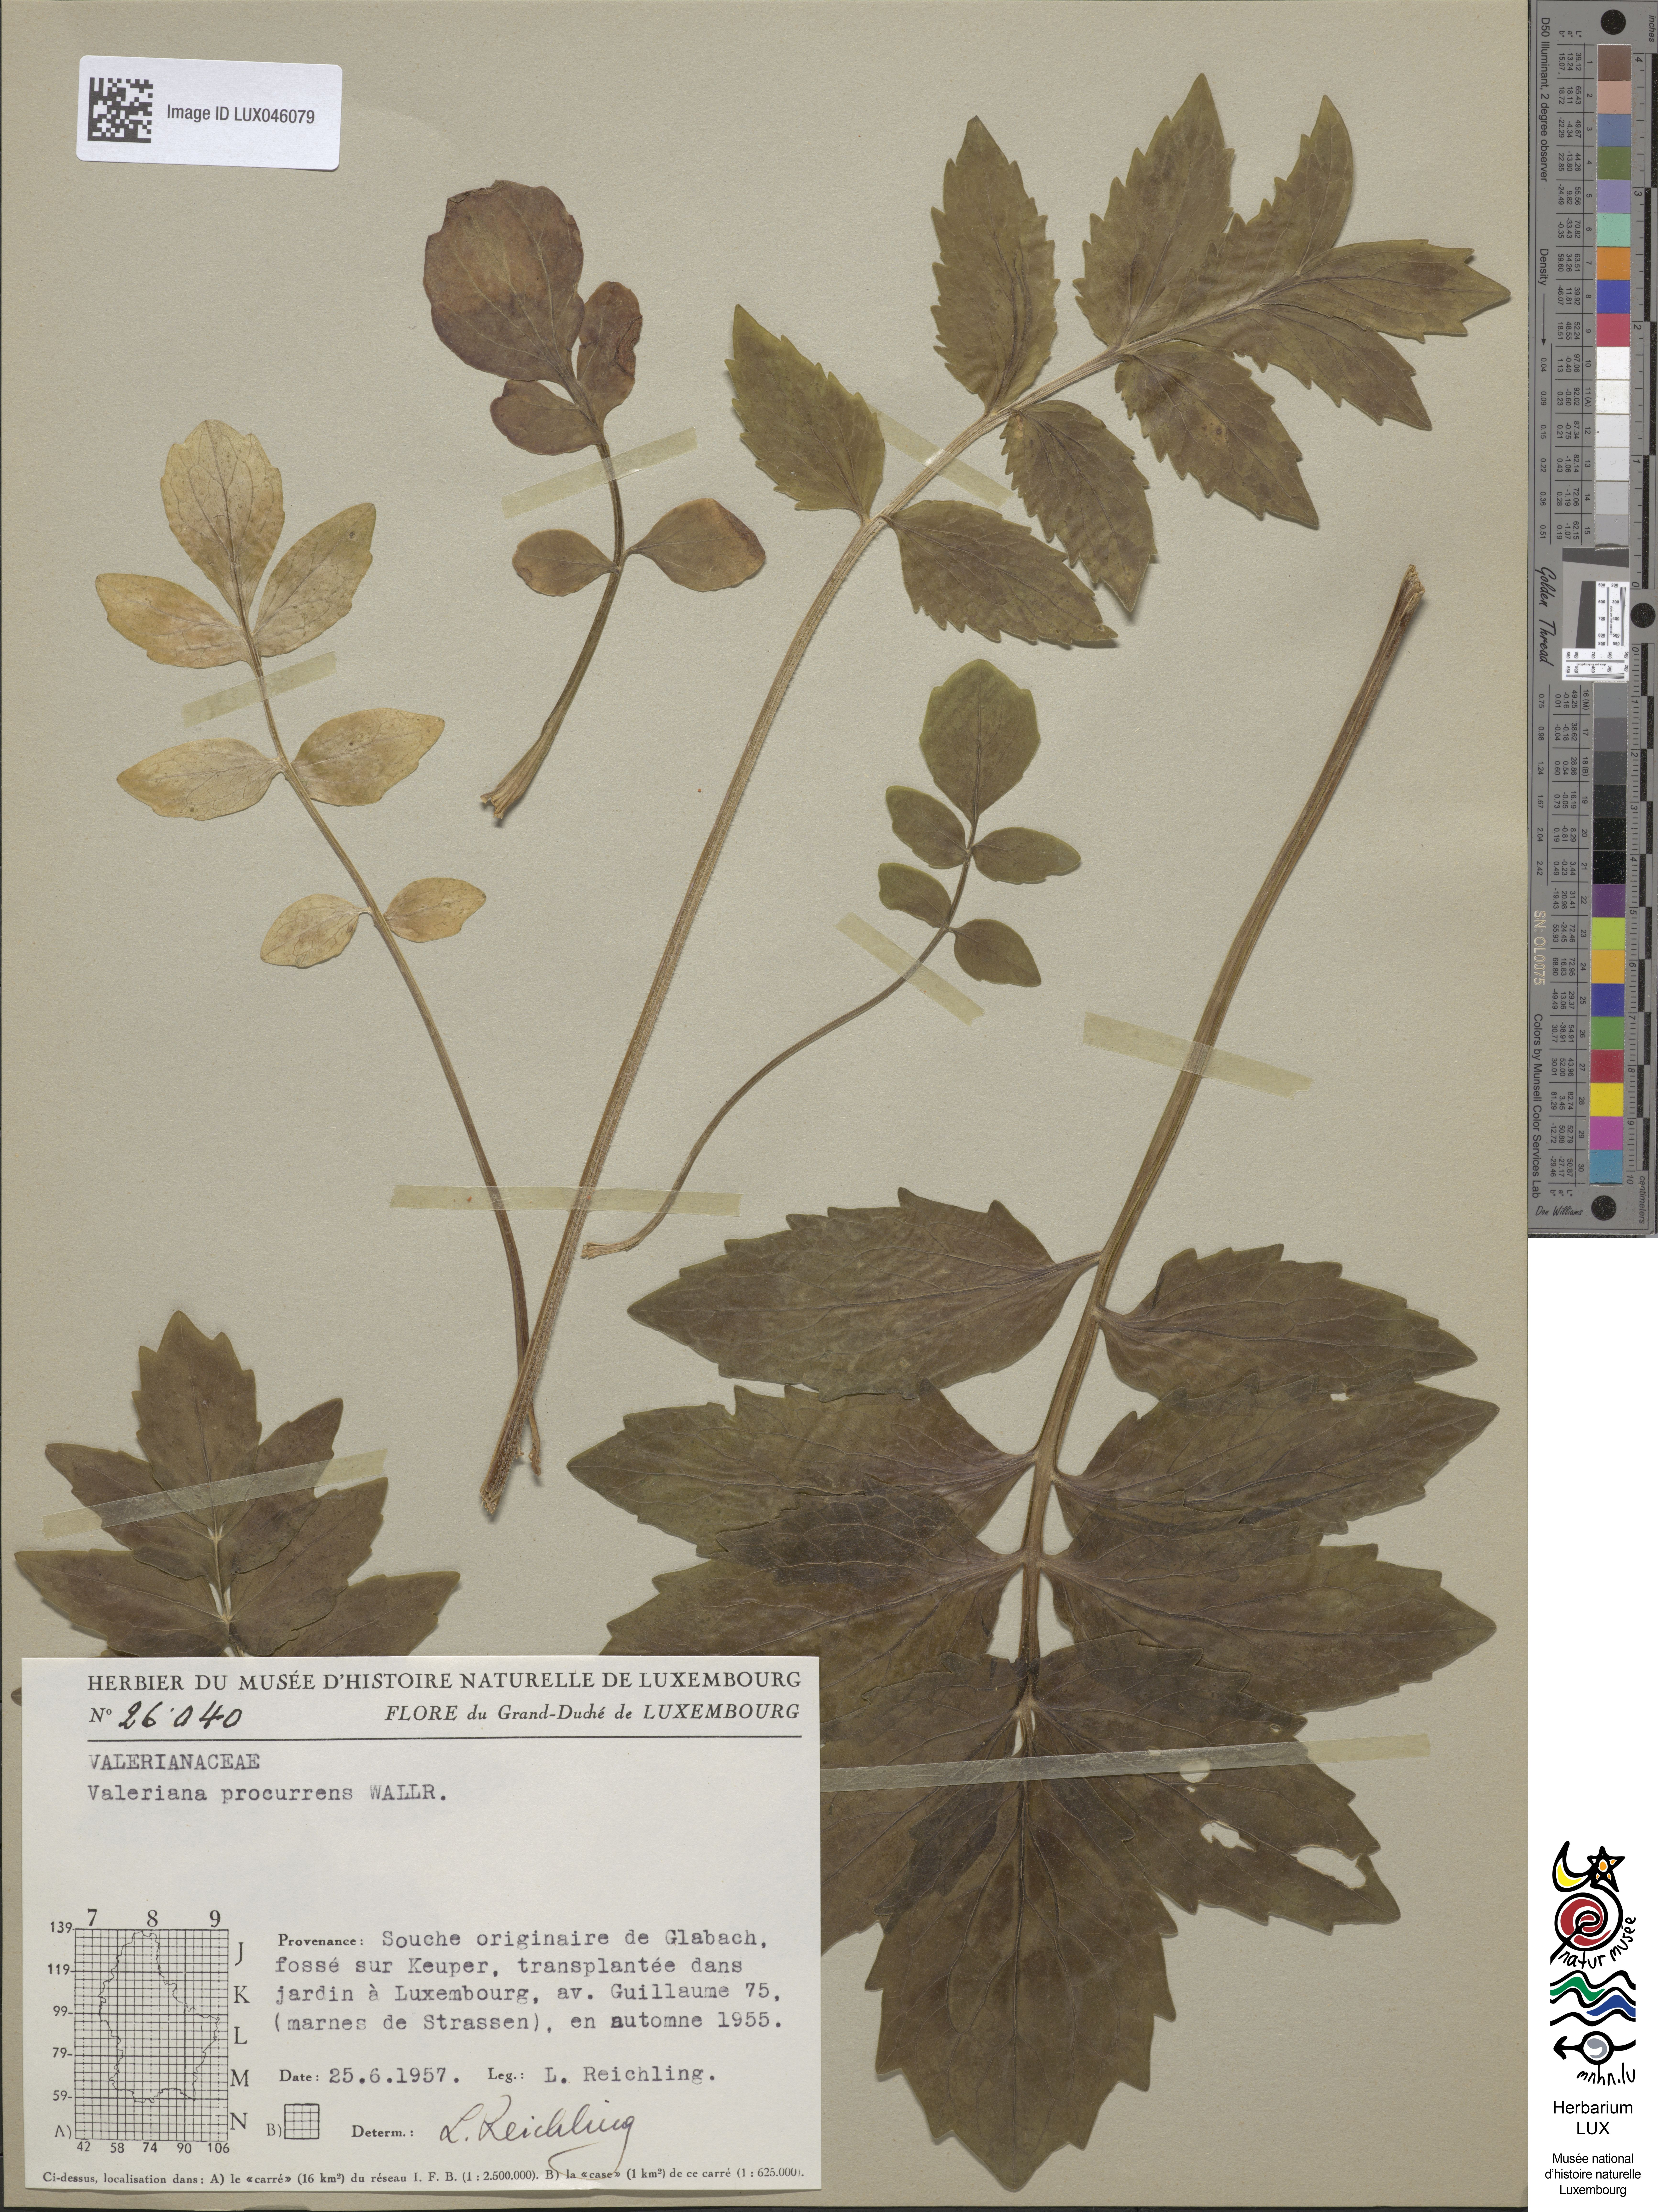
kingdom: Plantae
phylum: Tracheophyta
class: Magnoliopsida
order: Dipsacales
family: Caprifoliaceae
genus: Valeriana
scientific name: Valeriana excelsa
